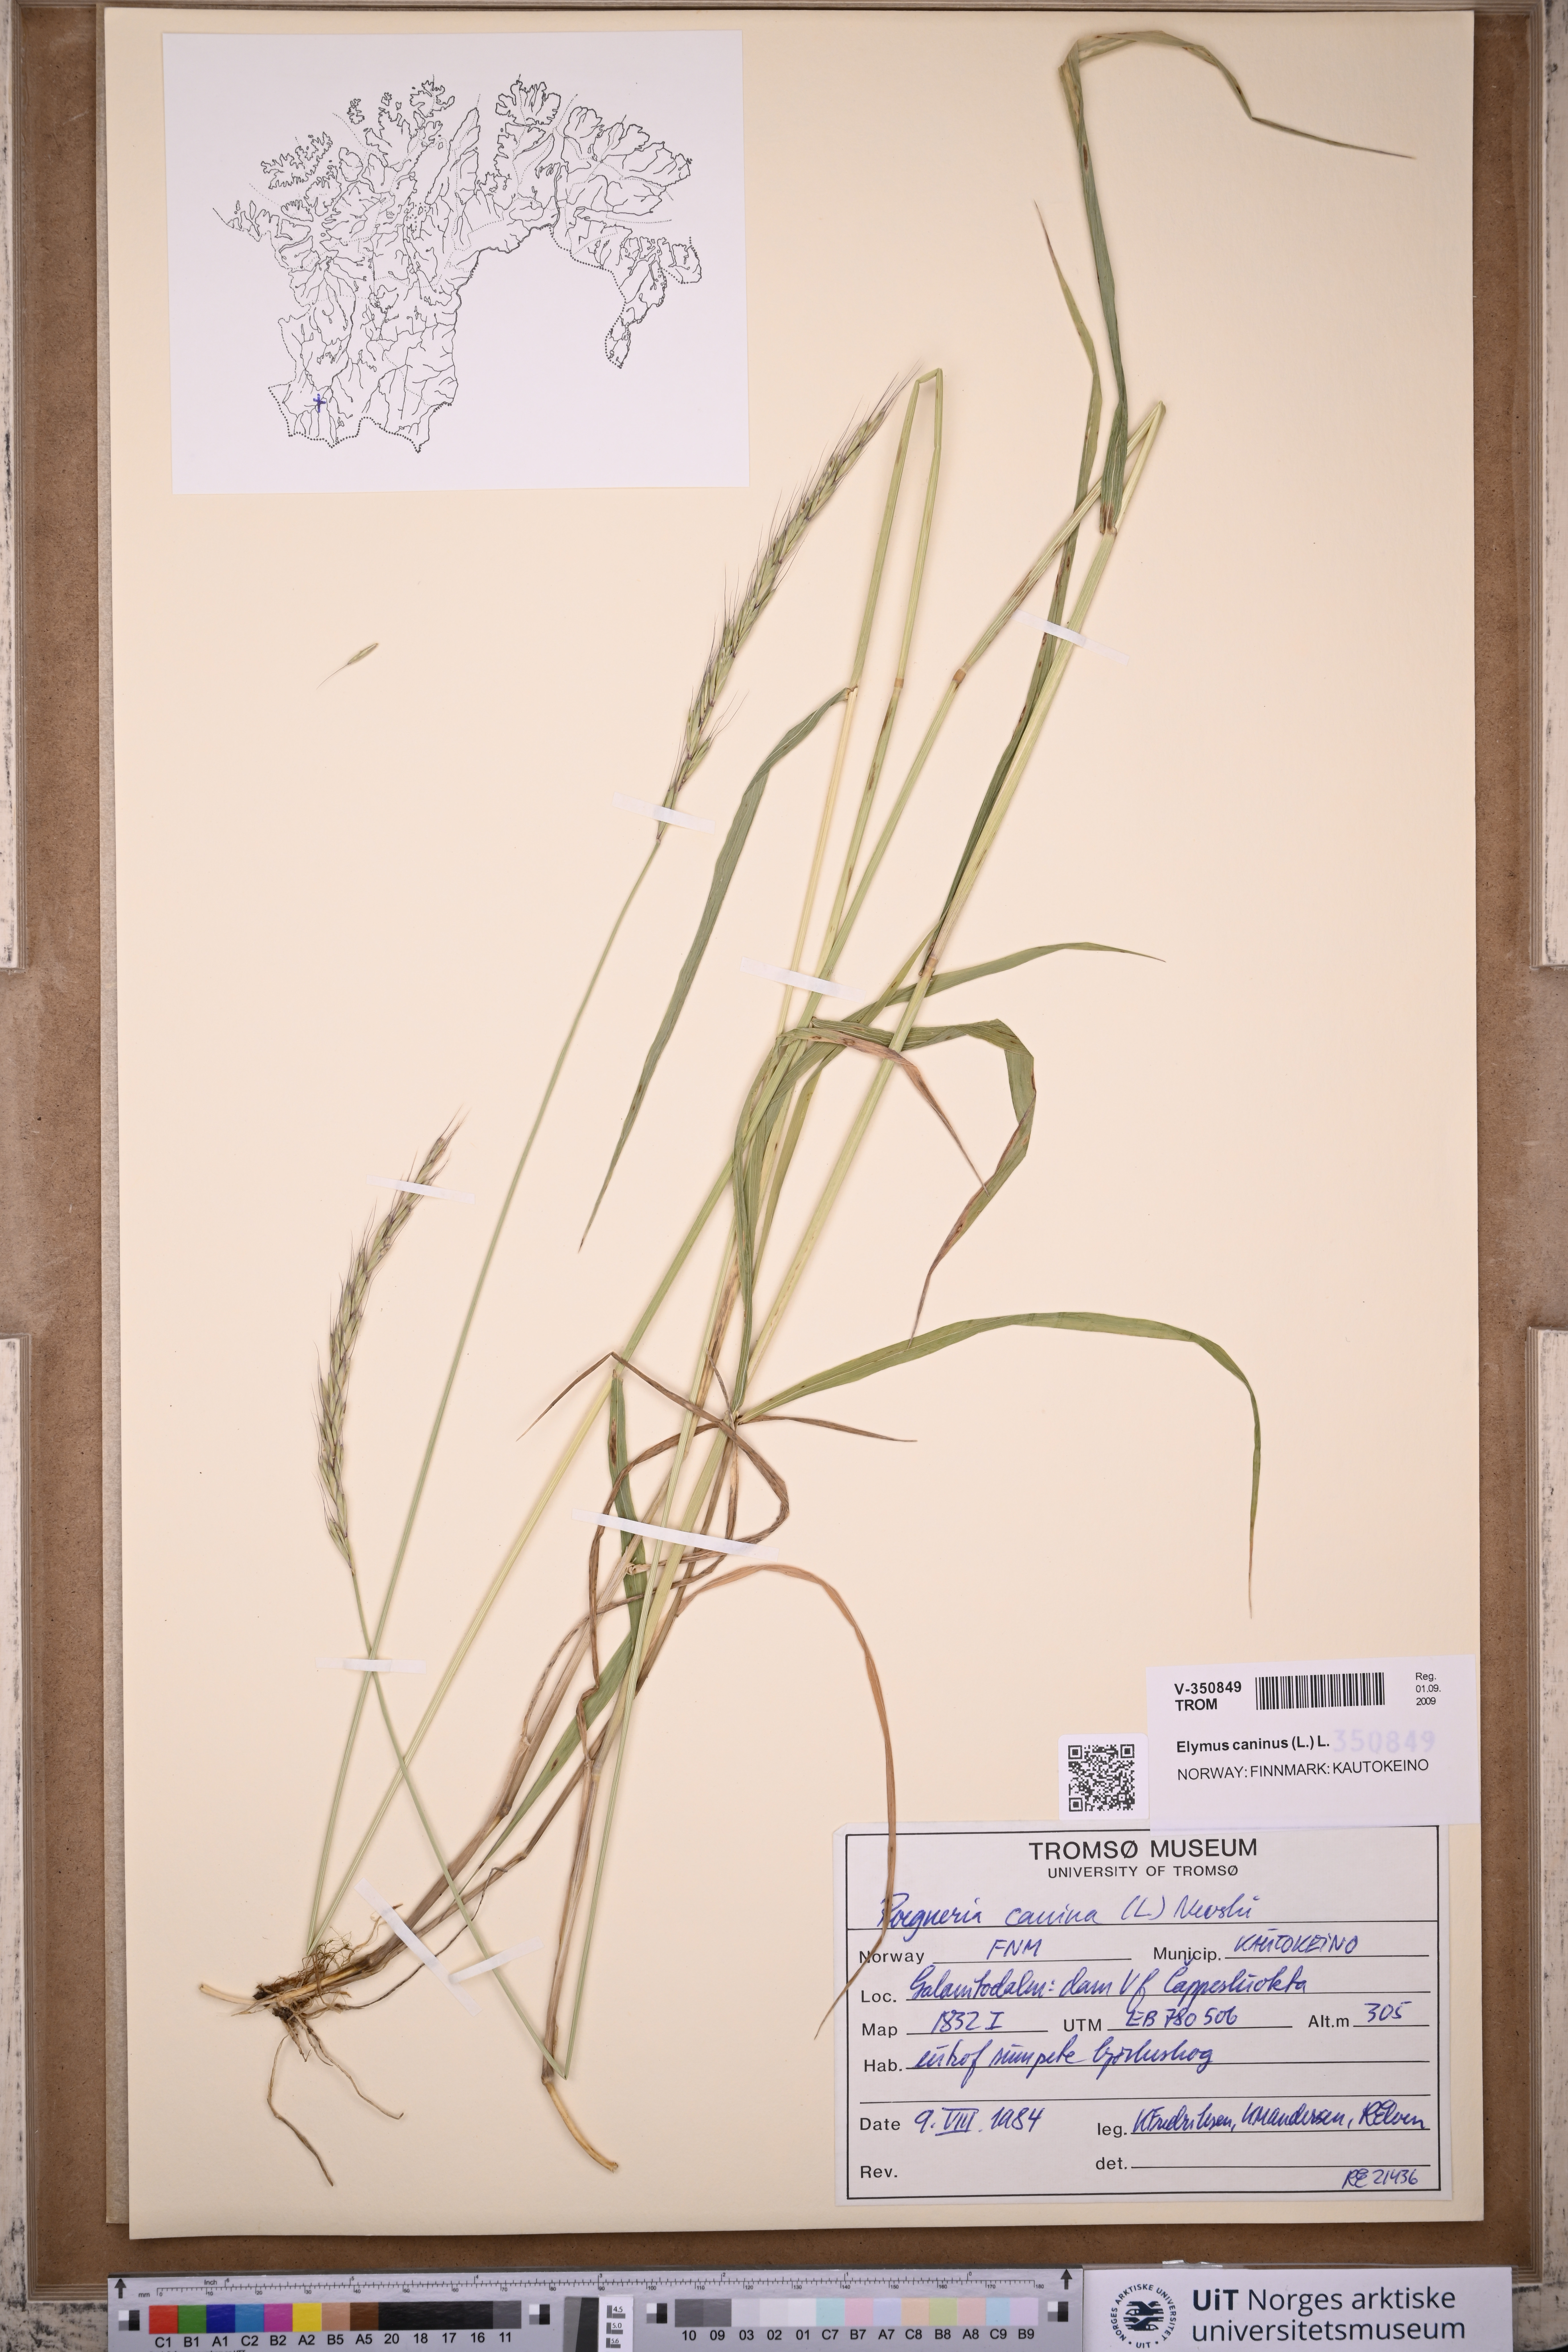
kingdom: Plantae
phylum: Tracheophyta
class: Liliopsida
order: Poales
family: Poaceae
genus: Elymus
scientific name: Elymus caninus
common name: Bearded couch
